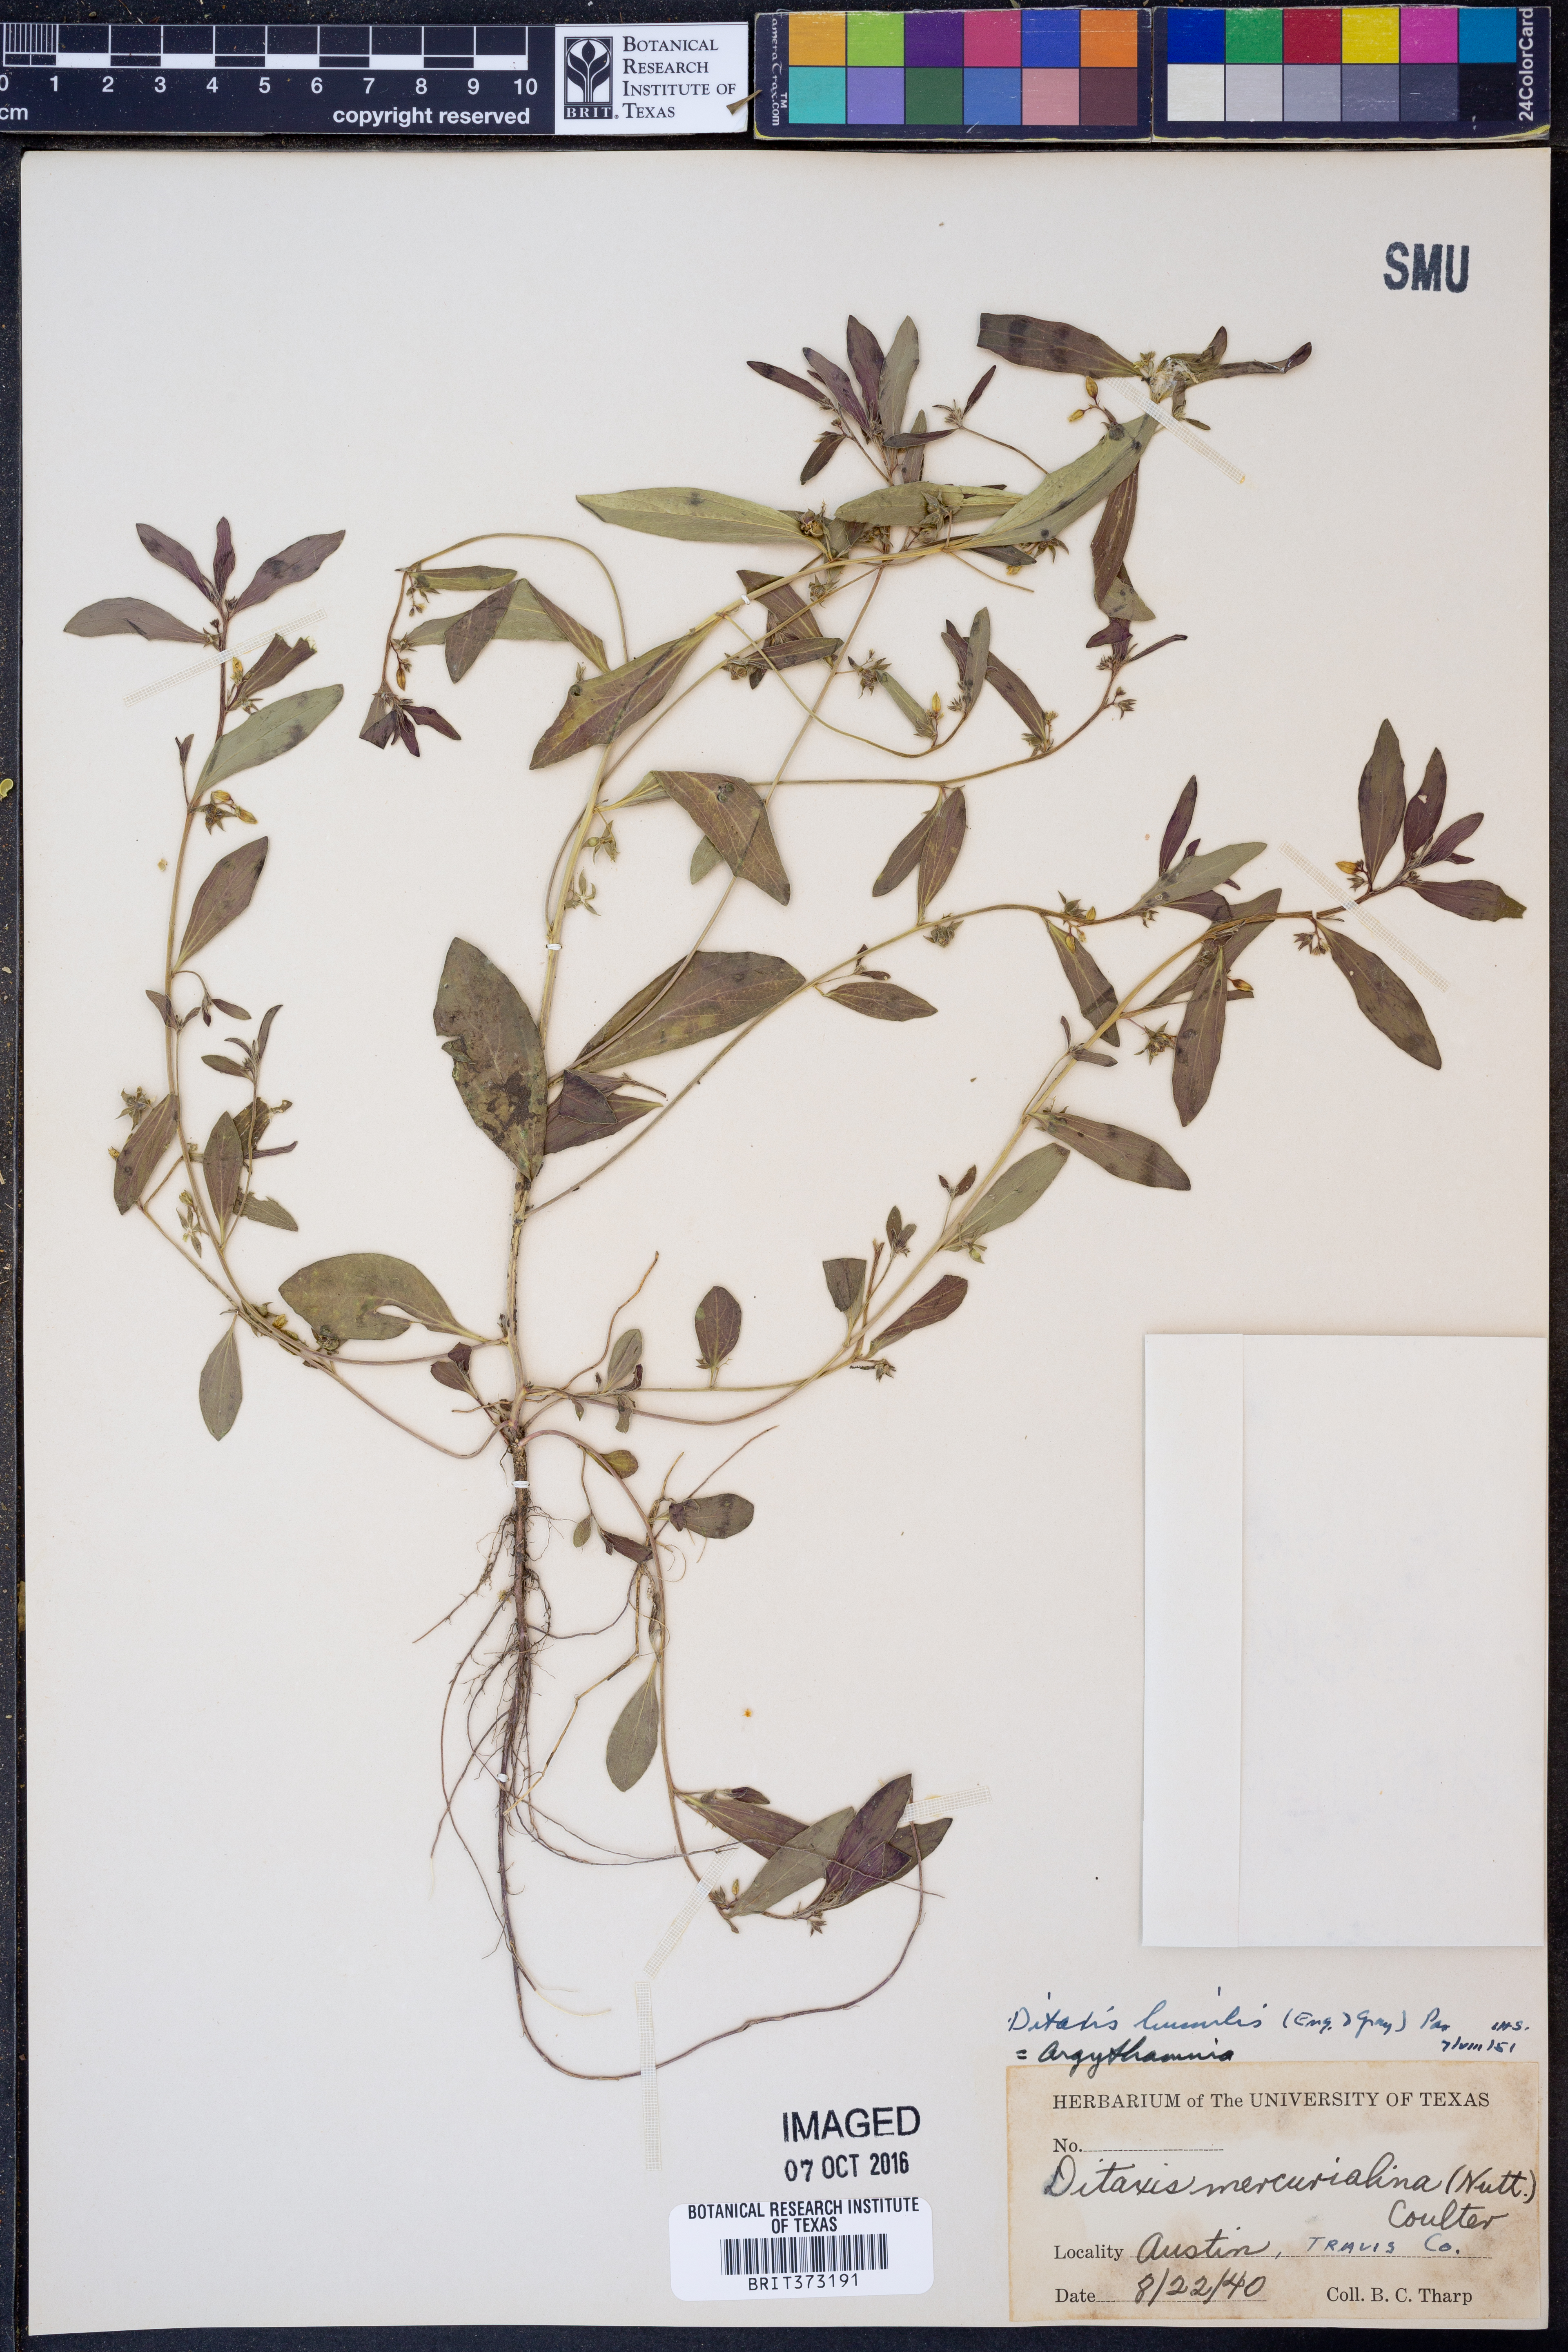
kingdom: Plantae
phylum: Tracheophyta
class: Magnoliopsida
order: Malpighiales
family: Euphorbiaceae
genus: Ditaxis
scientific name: Ditaxis humilis
